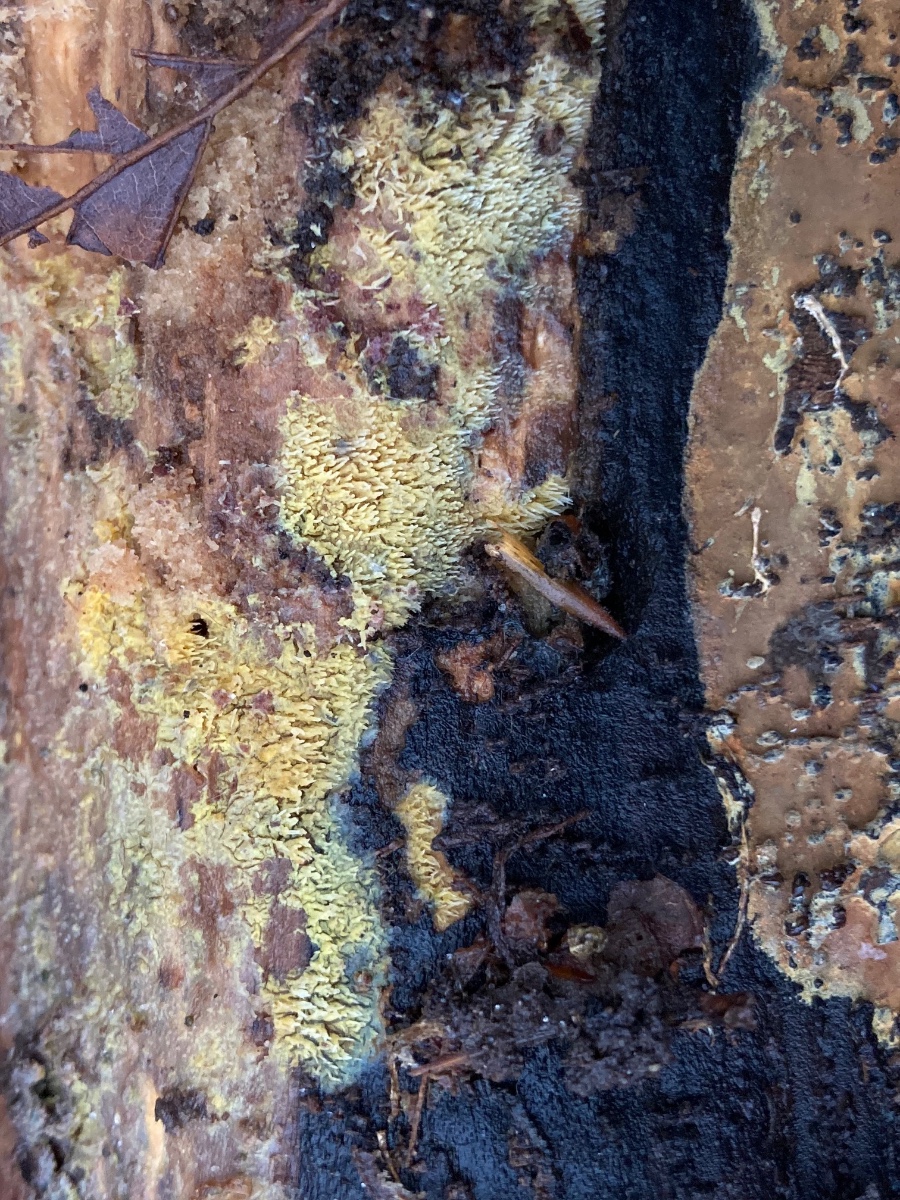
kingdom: Fungi
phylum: Basidiomycota
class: Agaricomycetes
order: Polyporales
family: Meruliaceae
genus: Mycoacia
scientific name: Mycoacia uda
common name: citrongul vokspig
